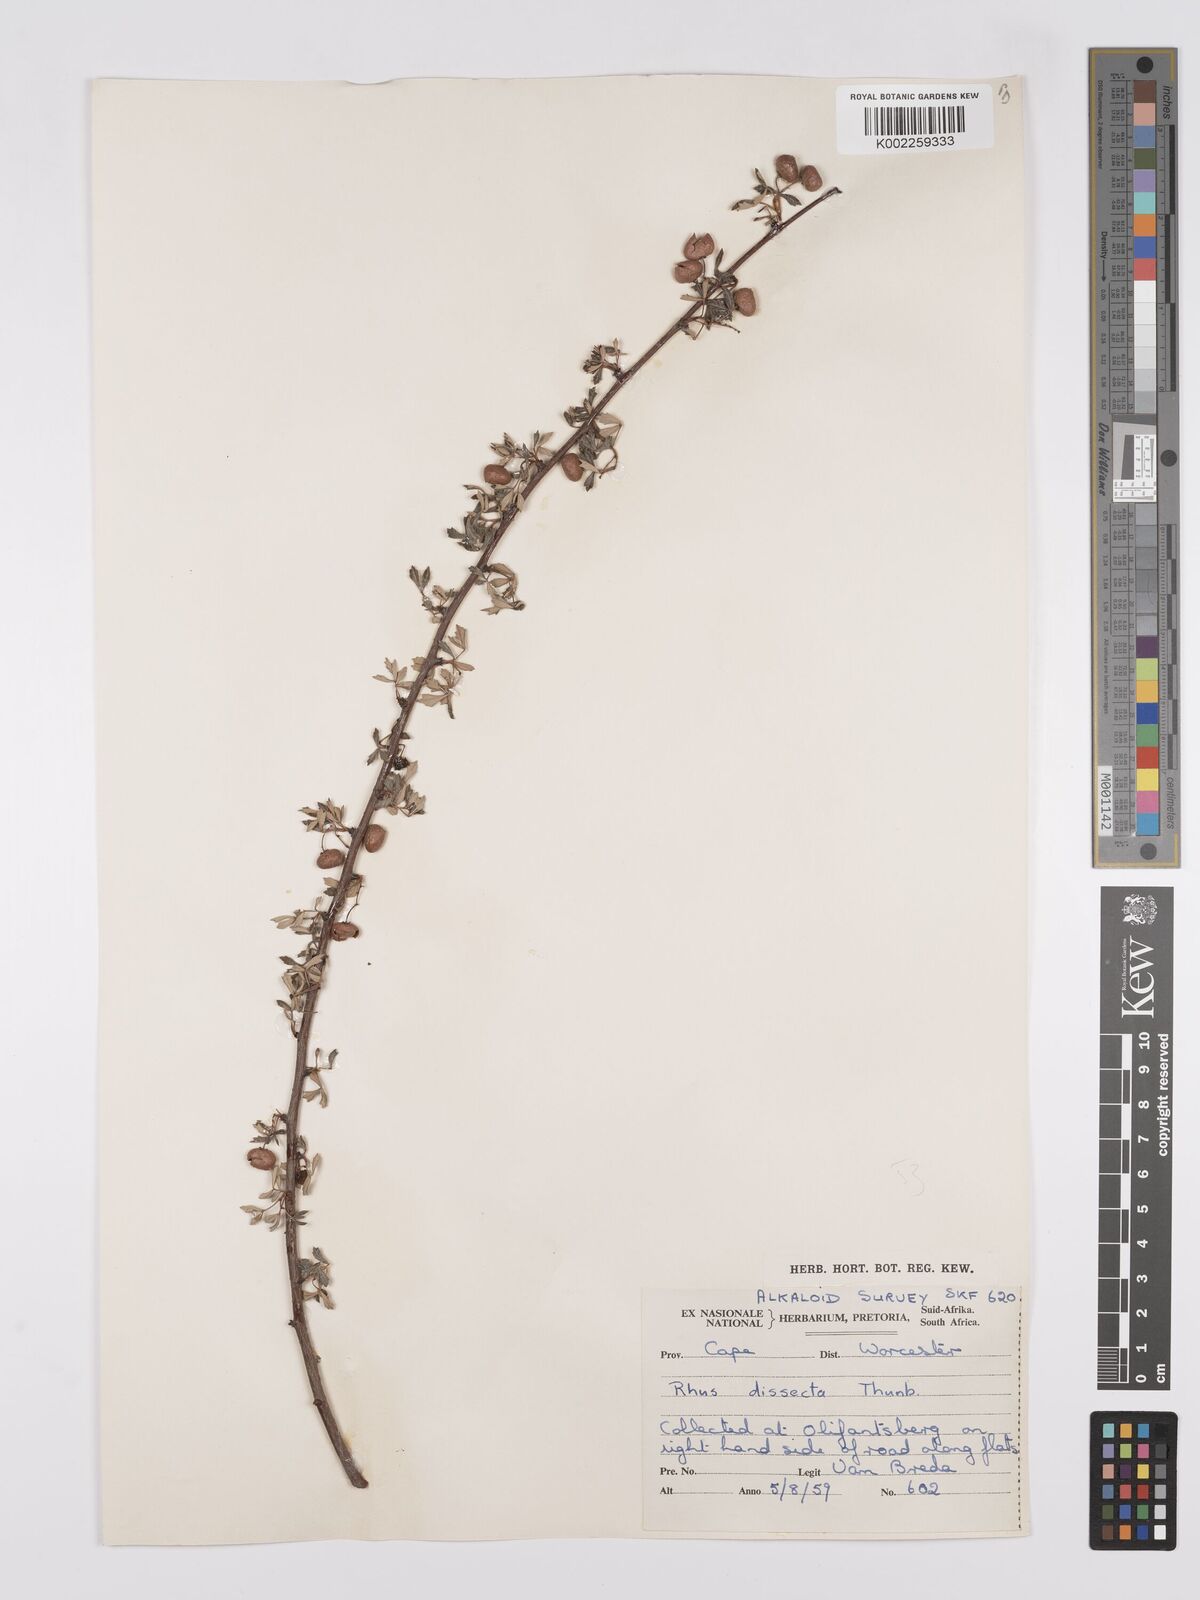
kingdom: Plantae
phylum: Tracheophyta
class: Magnoliopsida
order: Sapindales
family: Anacardiaceae
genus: Searsia
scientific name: Searsia dissecta
